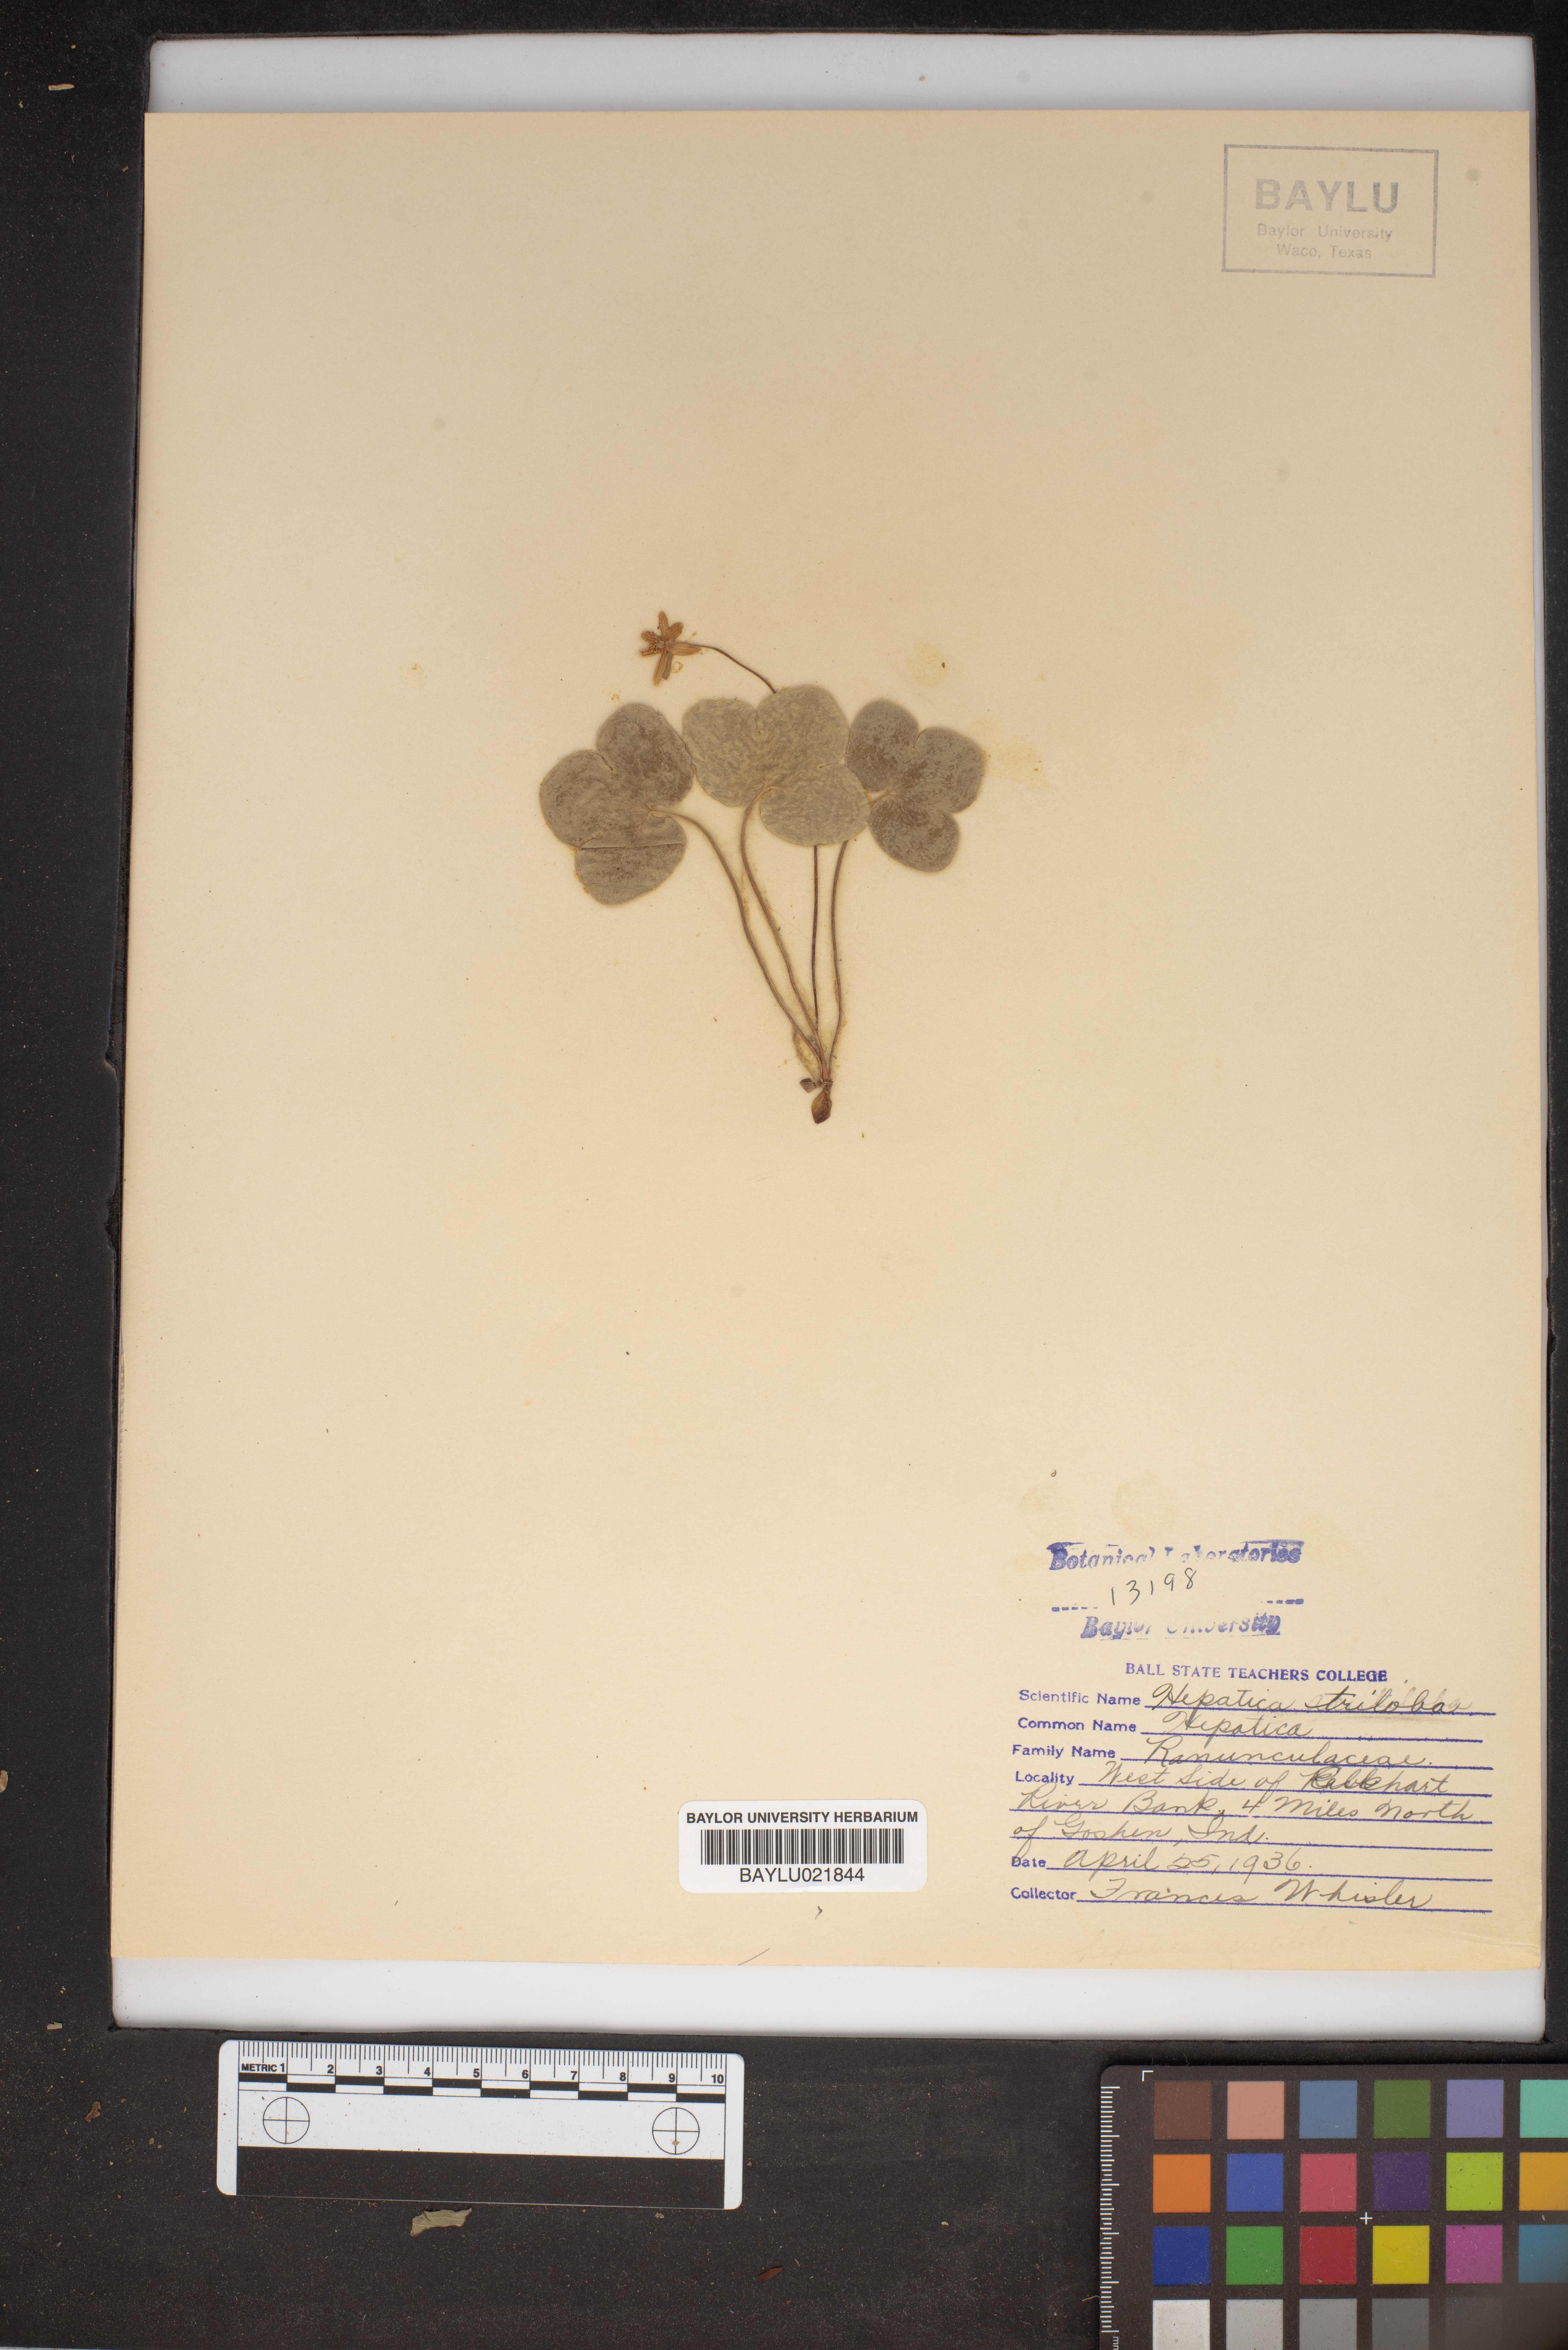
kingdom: Plantae
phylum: Tracheophyta
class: Magnoliopsida
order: Ranunculales
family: Ranunculaceae
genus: Hepatica
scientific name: Hepatica nobilis
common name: Liverleaf
